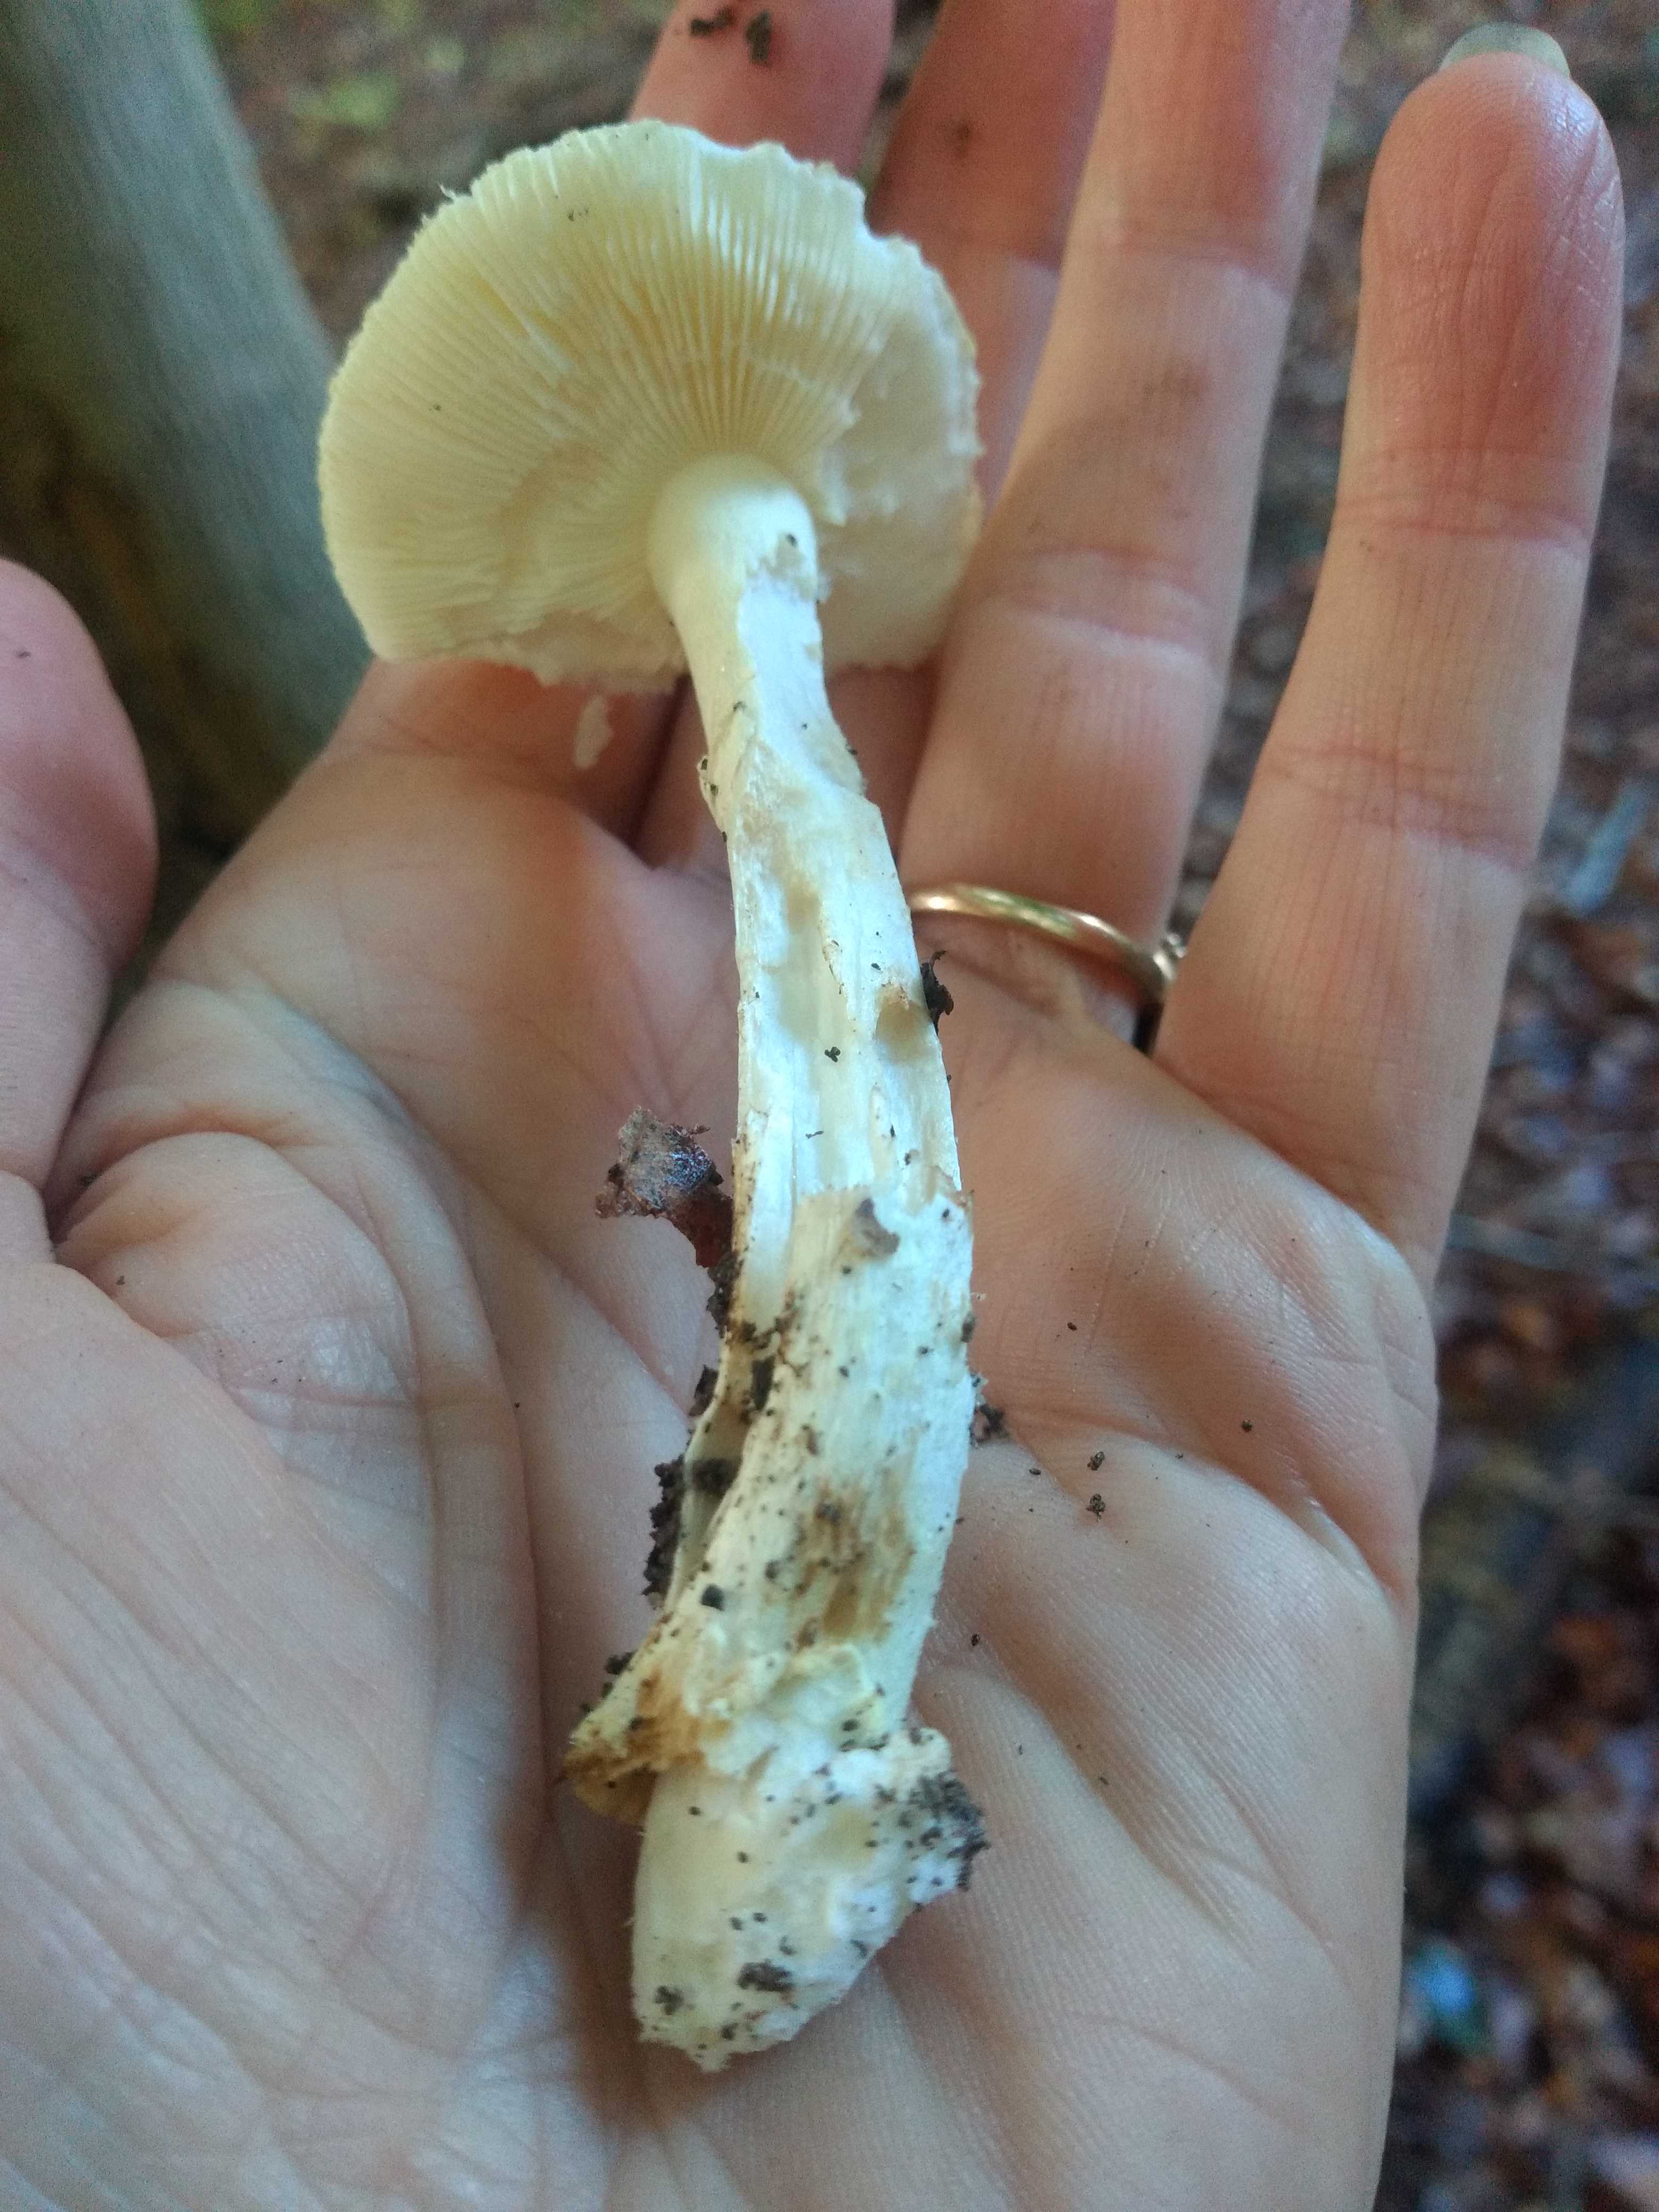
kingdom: Fungi
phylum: Basidiomycota
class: Agaricomycetes
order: Russulales
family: Russulaceae
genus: Russula
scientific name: Russula
